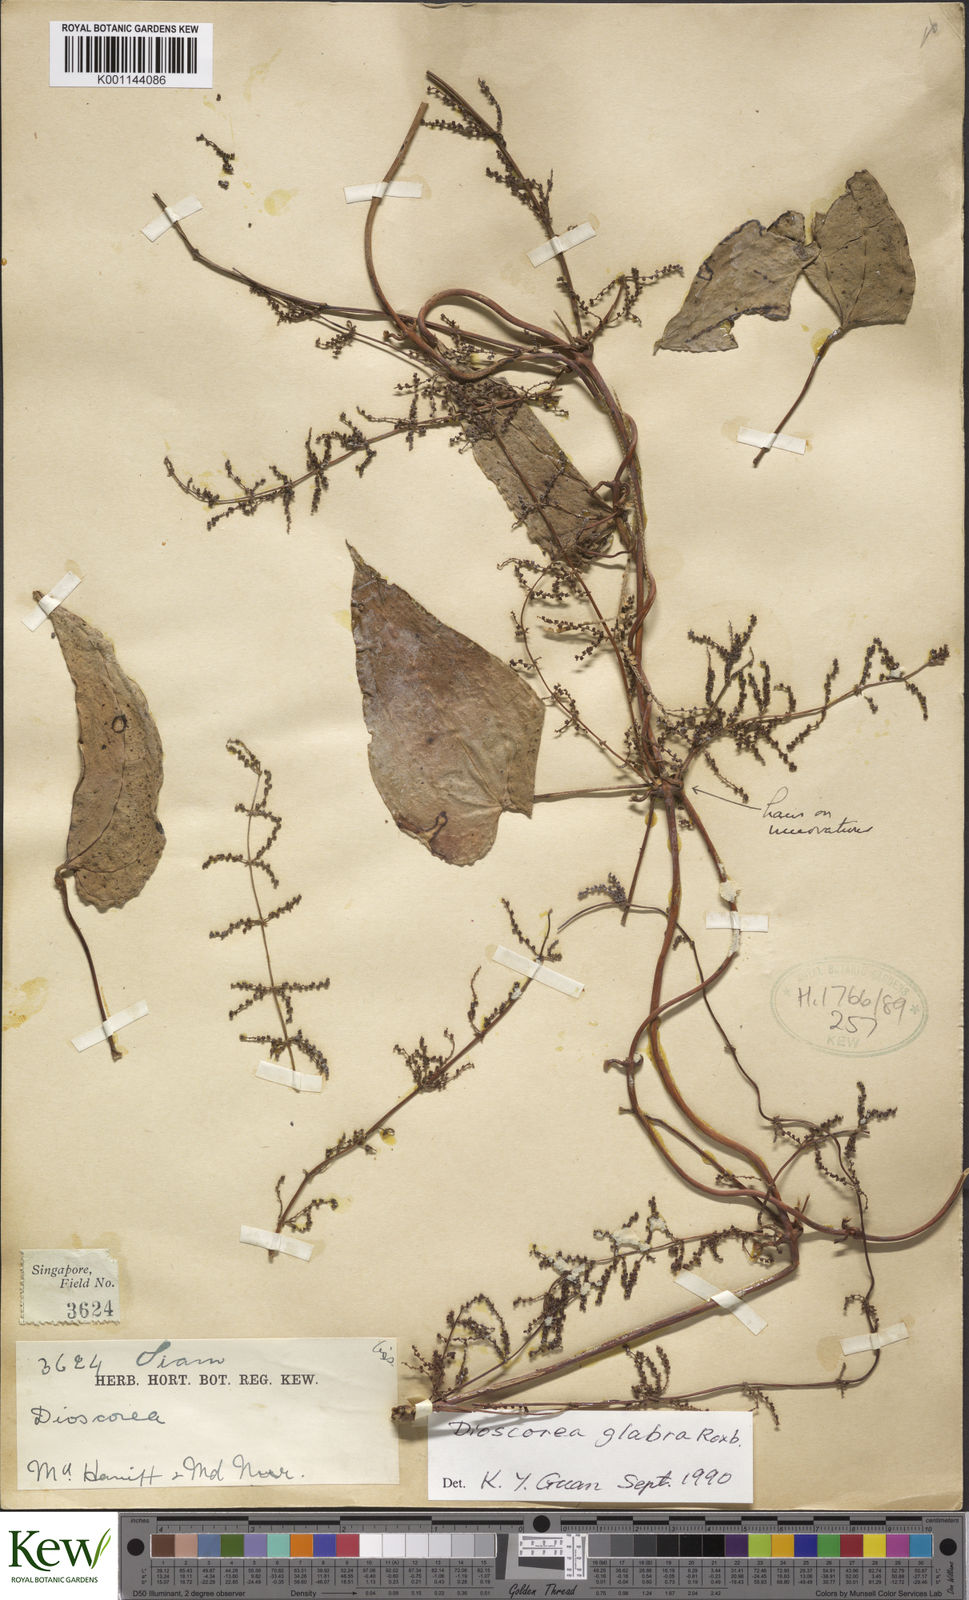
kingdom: Plantae
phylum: Tracheophyta
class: Liliopsida
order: Dioscoreales
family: Dioscoreaceae
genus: Dioscorea
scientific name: Dioscorea glabra
